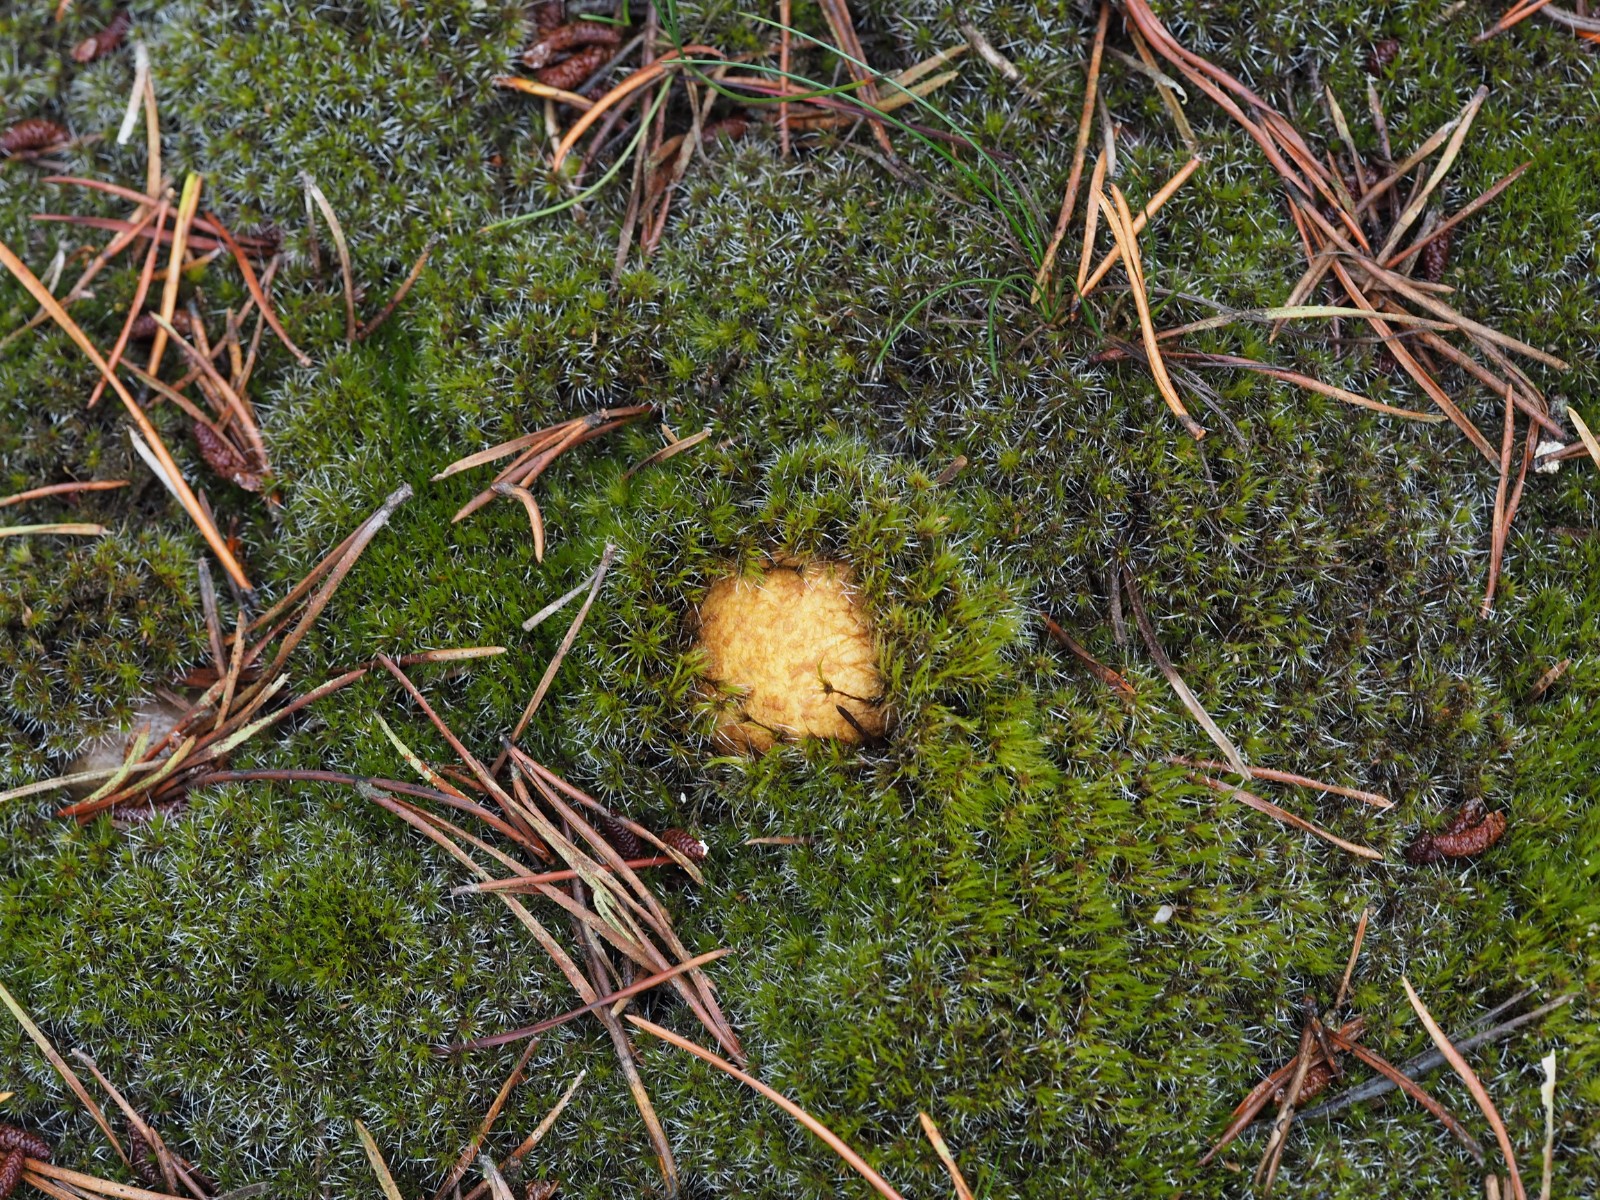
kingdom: Fungi
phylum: Basidiomycota
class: Agaricomycetes
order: Boletales
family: Rhizopogonaceae
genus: Rhizopogon
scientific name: Rhizopogon obtextus
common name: gul skægtrøffel
